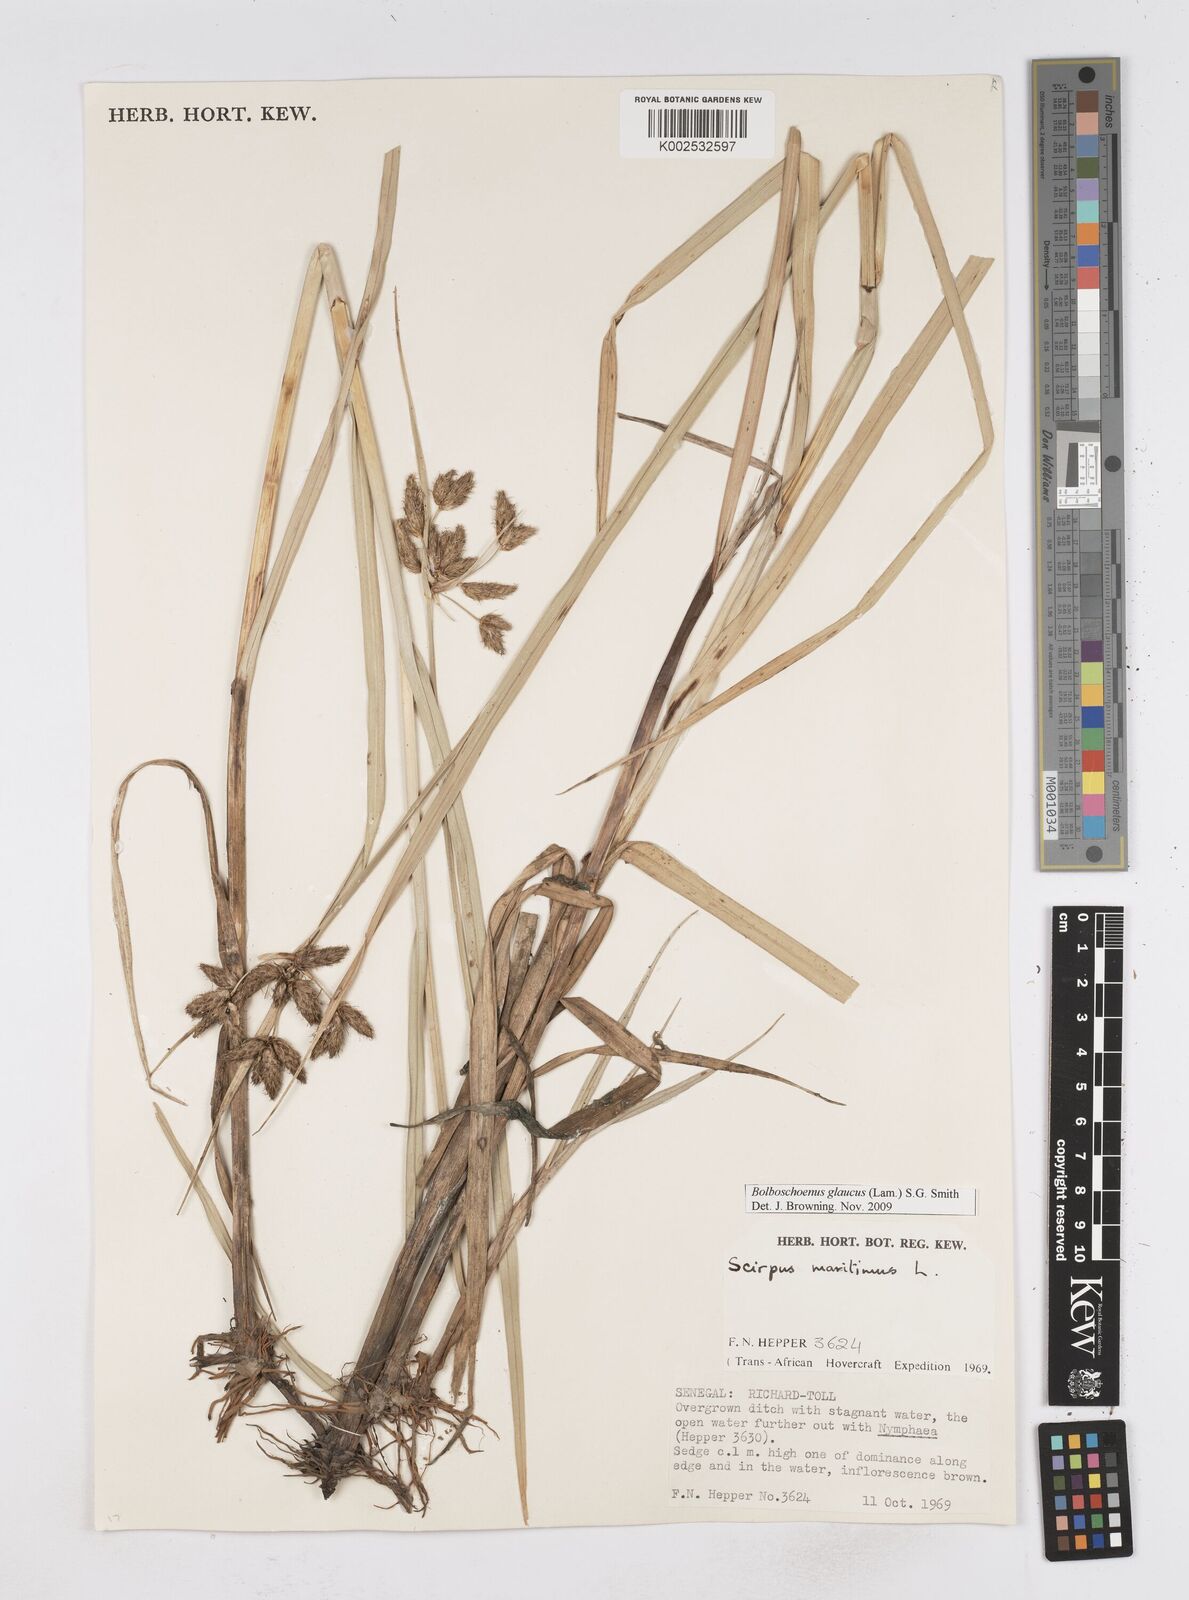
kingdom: Plantae
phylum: Tracheophyta
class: Liliopsida
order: Poales
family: Cyperaceae
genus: Bolboschoenus
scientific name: Bolboschoenus glaucus
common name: Tuberous bulrush
